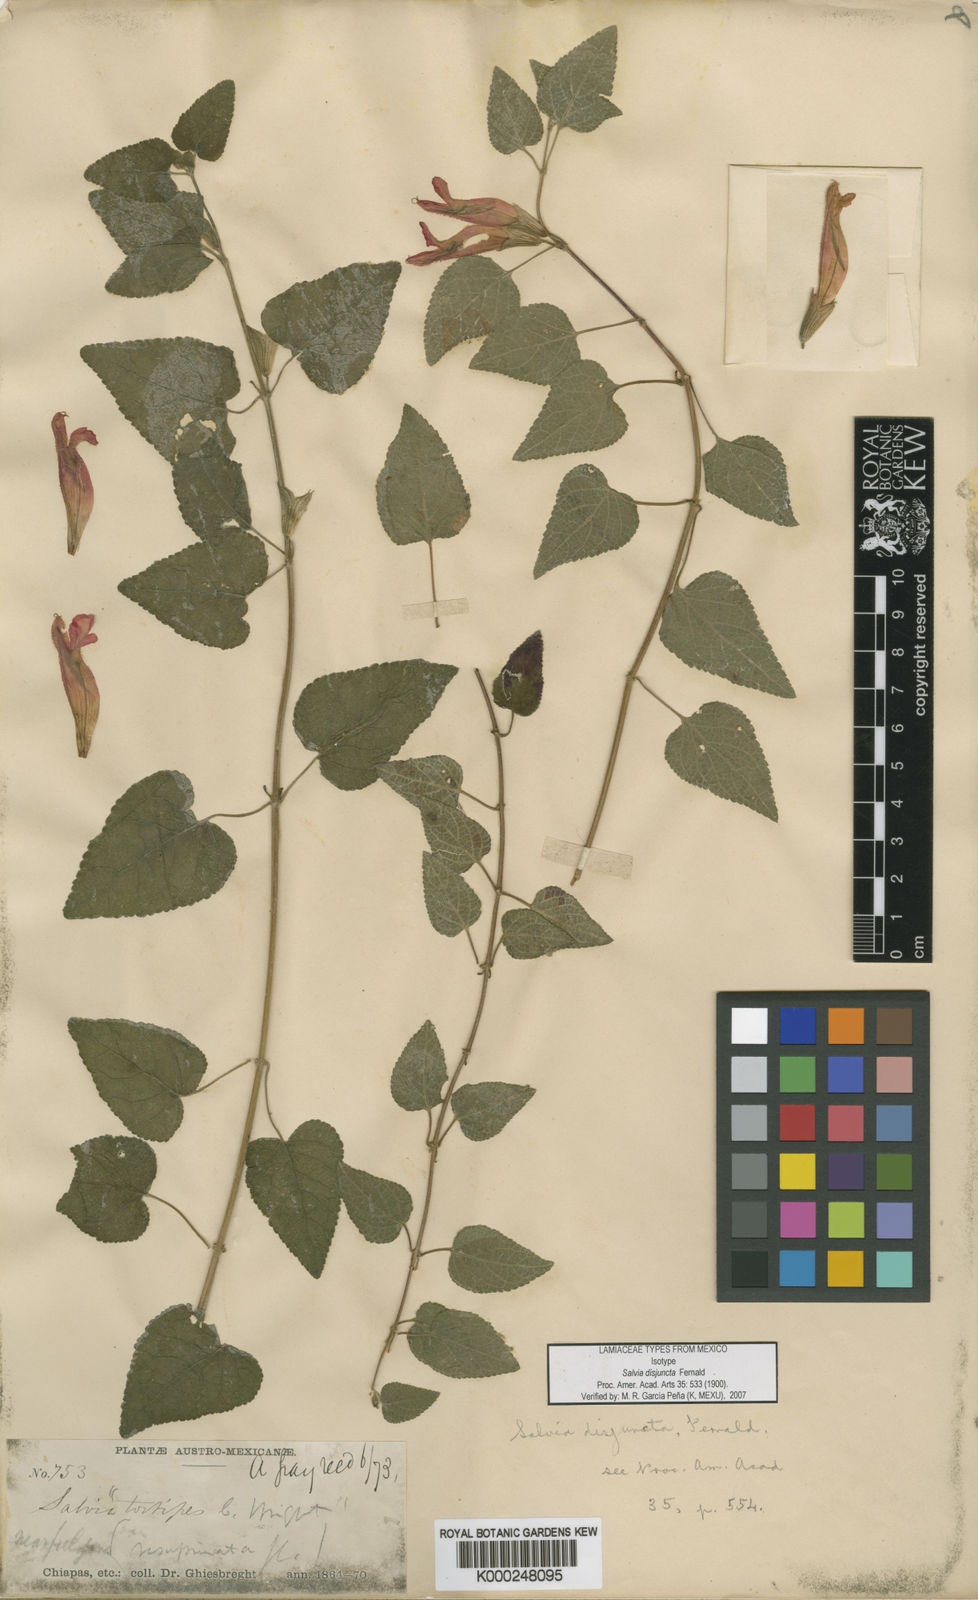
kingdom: Plantae
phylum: Tracheophyta
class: Magnoliopsida
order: Lamiales
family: Lamiaceae
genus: Salvia
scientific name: Salvia disjuncta
